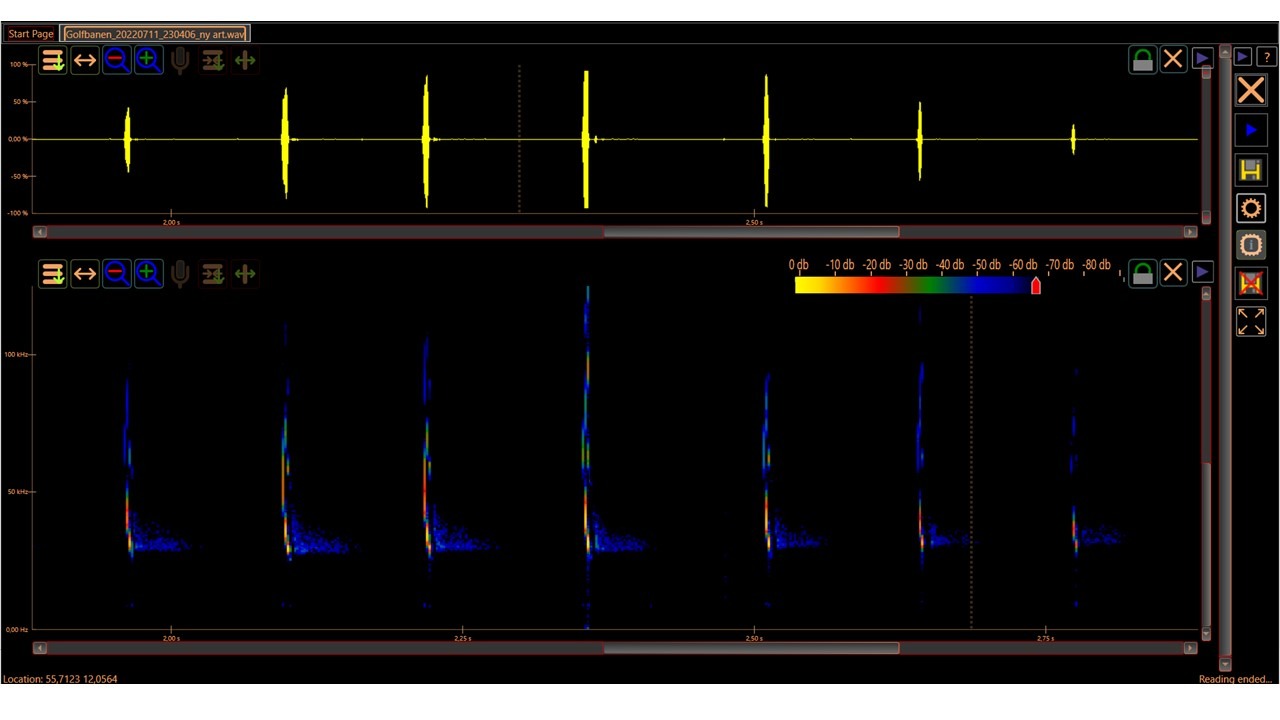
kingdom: Animalia
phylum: Chordata
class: Mammalia
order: Chiroptera
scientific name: Chiroptera
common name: Flagermus
